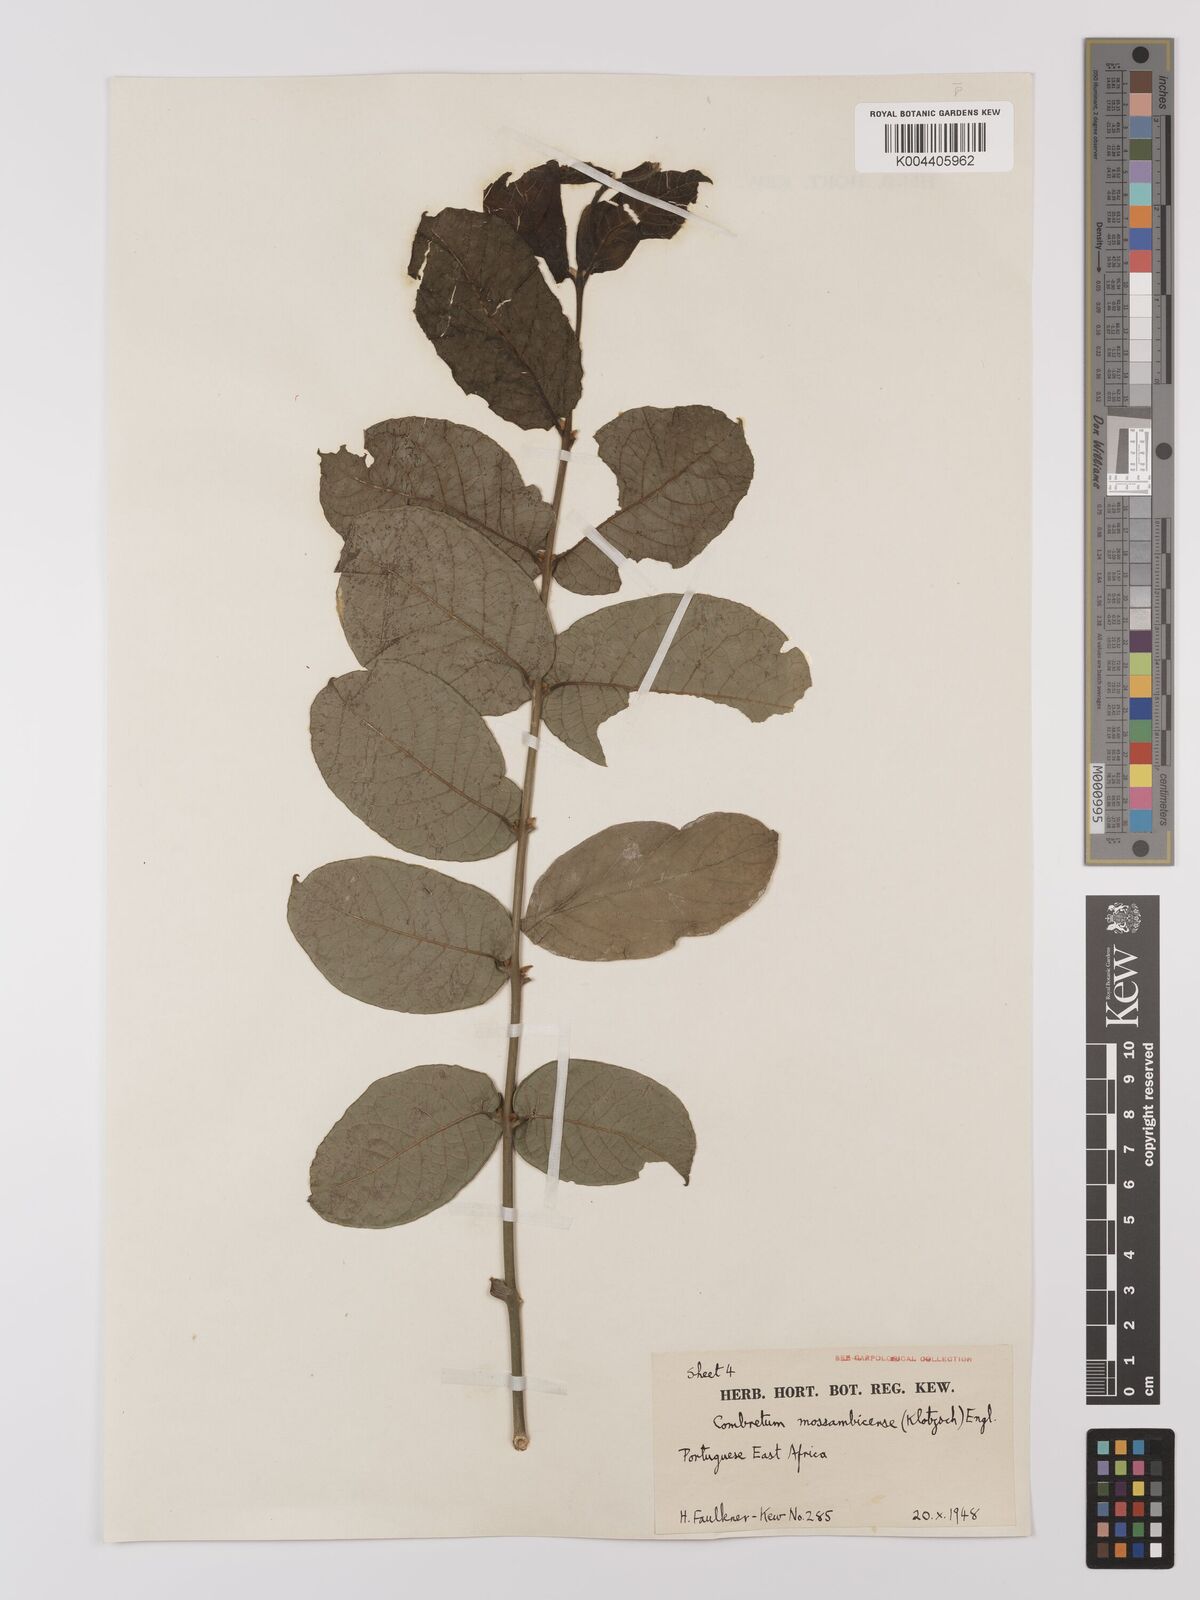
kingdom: Plantae
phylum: Tracheophyta
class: Magnoliopsida
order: Myrtales
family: Combretaceae
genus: Combretum
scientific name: Combretum mossambicense
